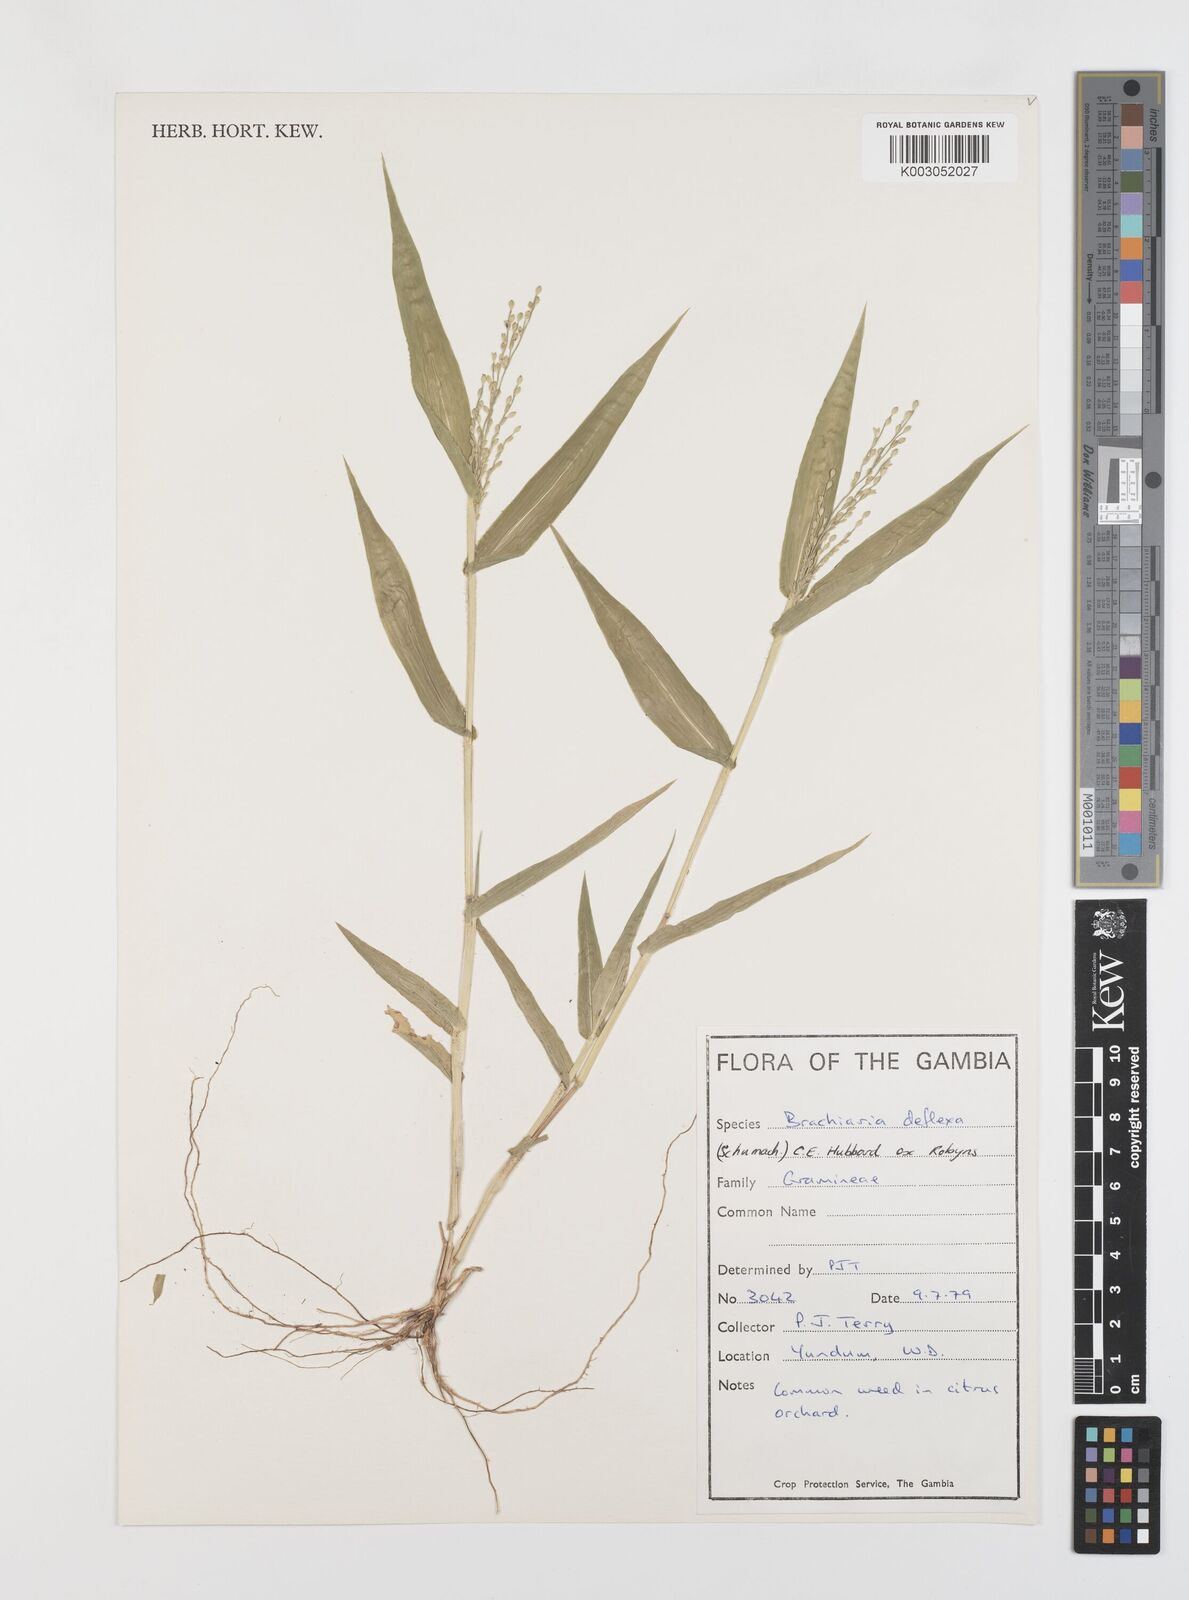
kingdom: Plantae
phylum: Tracheophyta
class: Liliopsida
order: Poales
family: Poaceae
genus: Urochloa
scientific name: Urochloa deflexa
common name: Guinea millet
